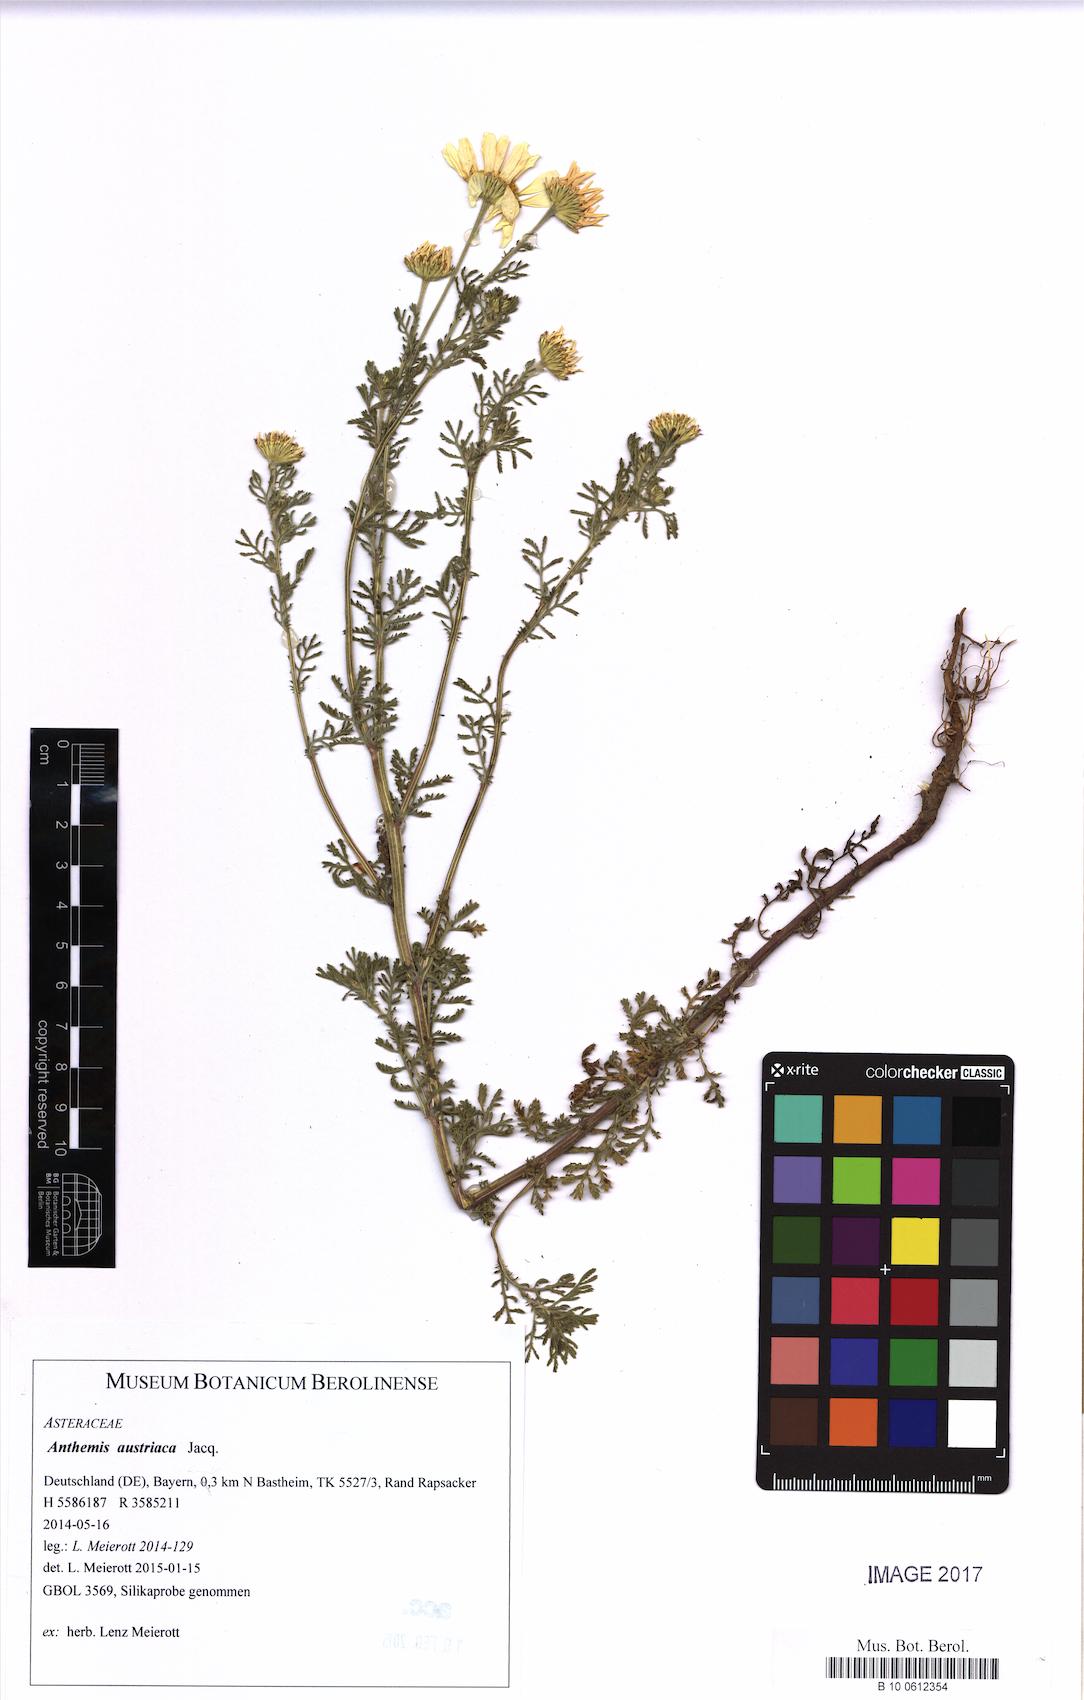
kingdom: Plantae
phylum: Tracheophyta
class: Magnoliopsida
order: Asterales
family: Asteraceae
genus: Cota
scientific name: Cota austriaca
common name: Austrian chamomile
